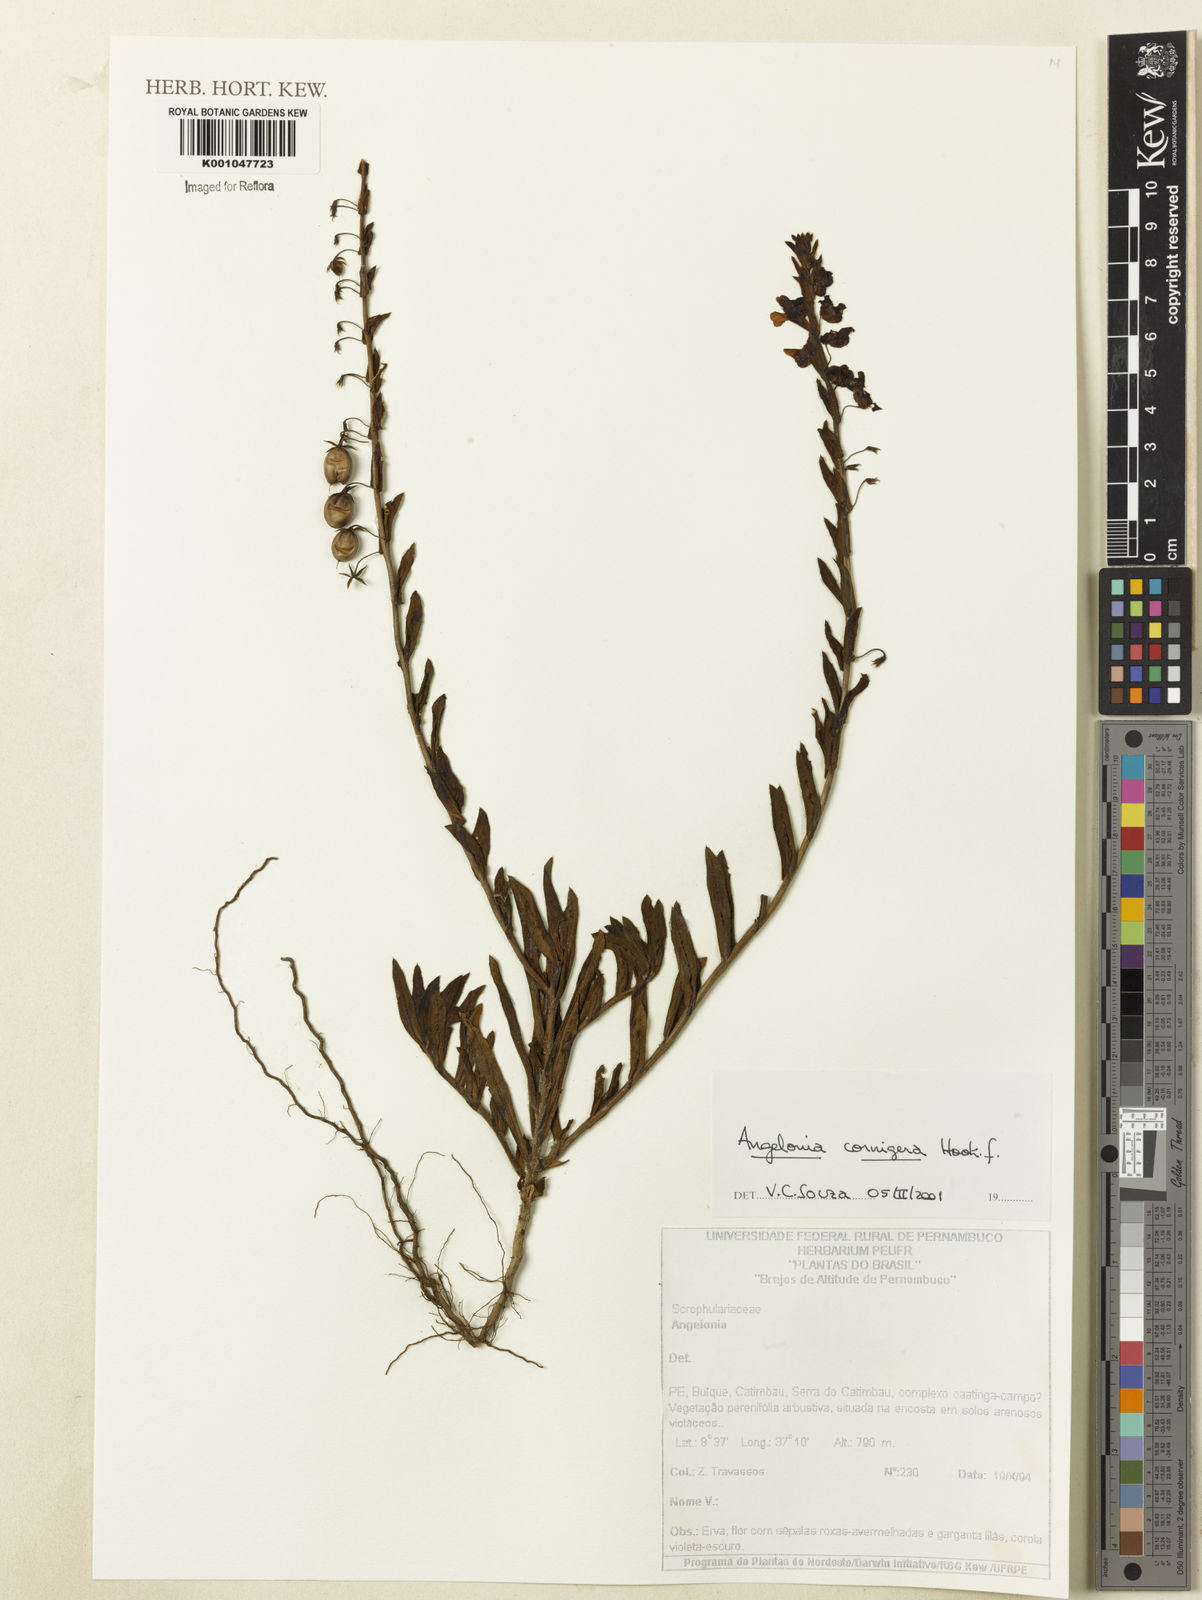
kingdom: Plantae
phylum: Tracheophyta
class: Magnoliopsida
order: Lamiales
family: Plantaginaceae
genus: Angelonia
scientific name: Angelonia cornigera
